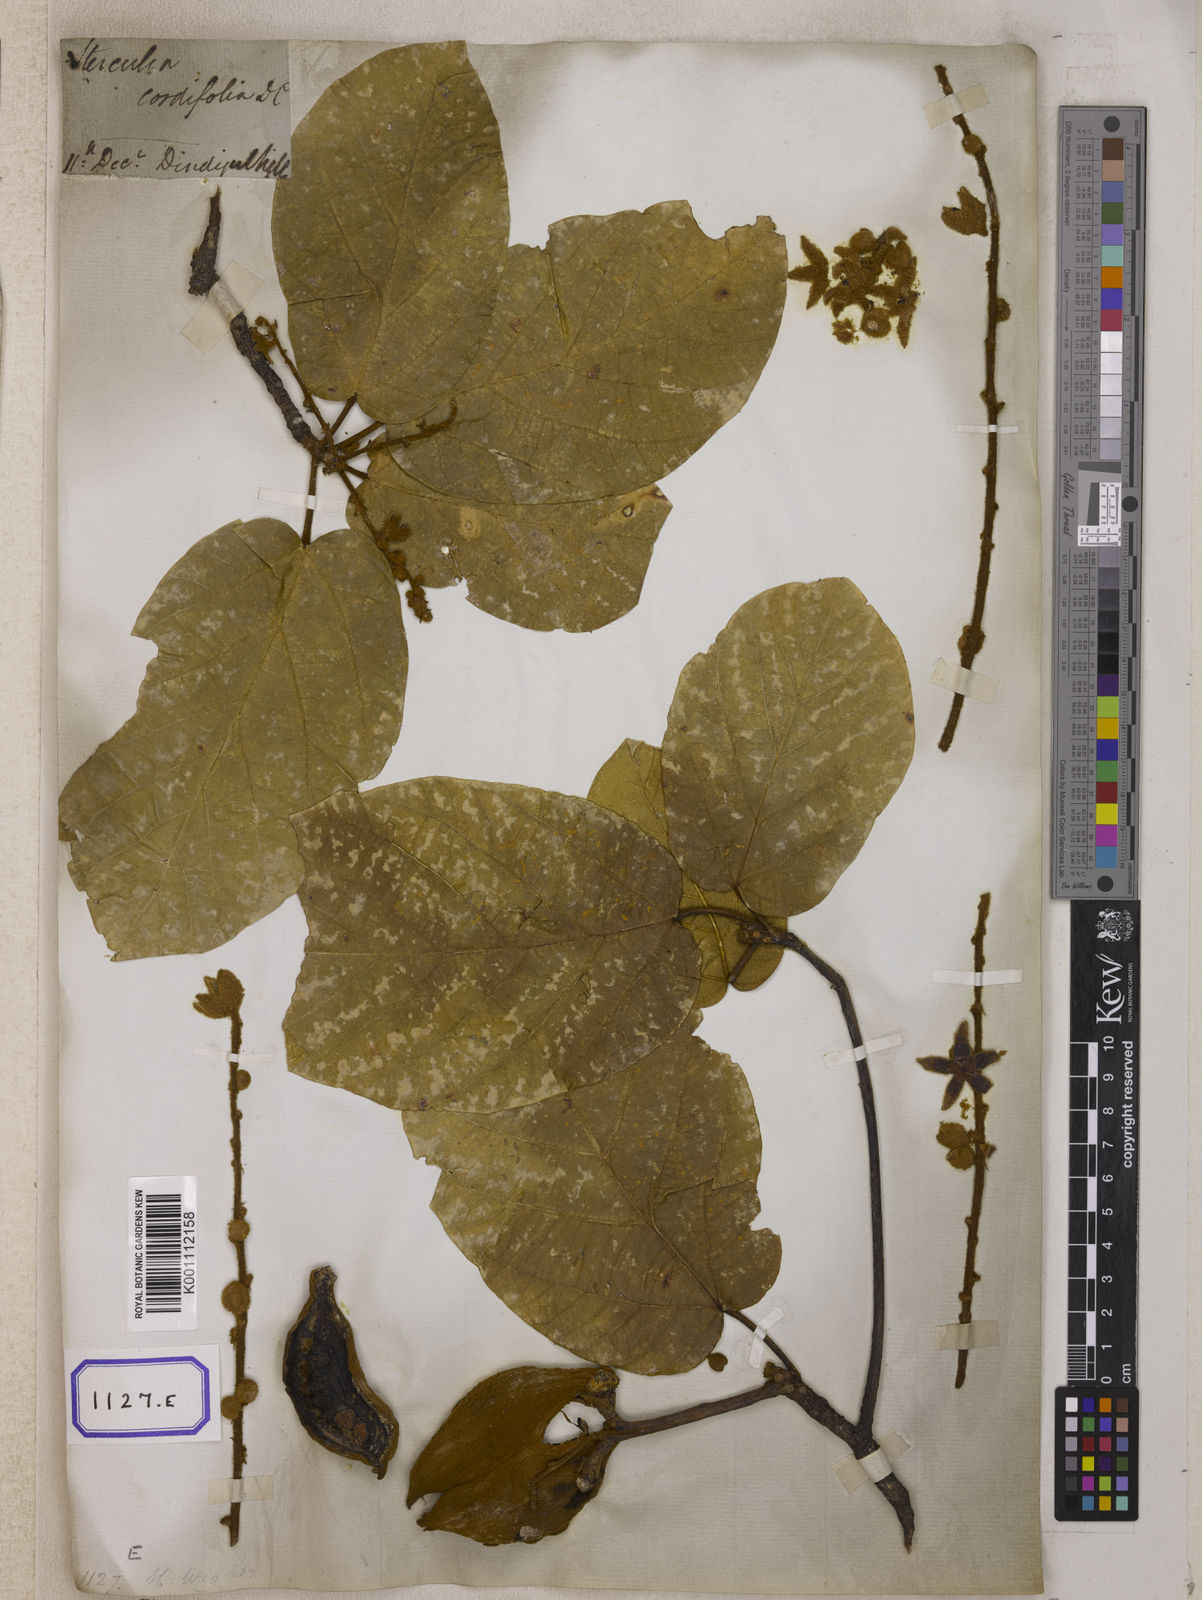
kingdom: Plantae
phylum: Tracheophyta
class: Magnoliopsida
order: Malvales
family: Malvaceae
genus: Sterculia
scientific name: Sterculia guttata
